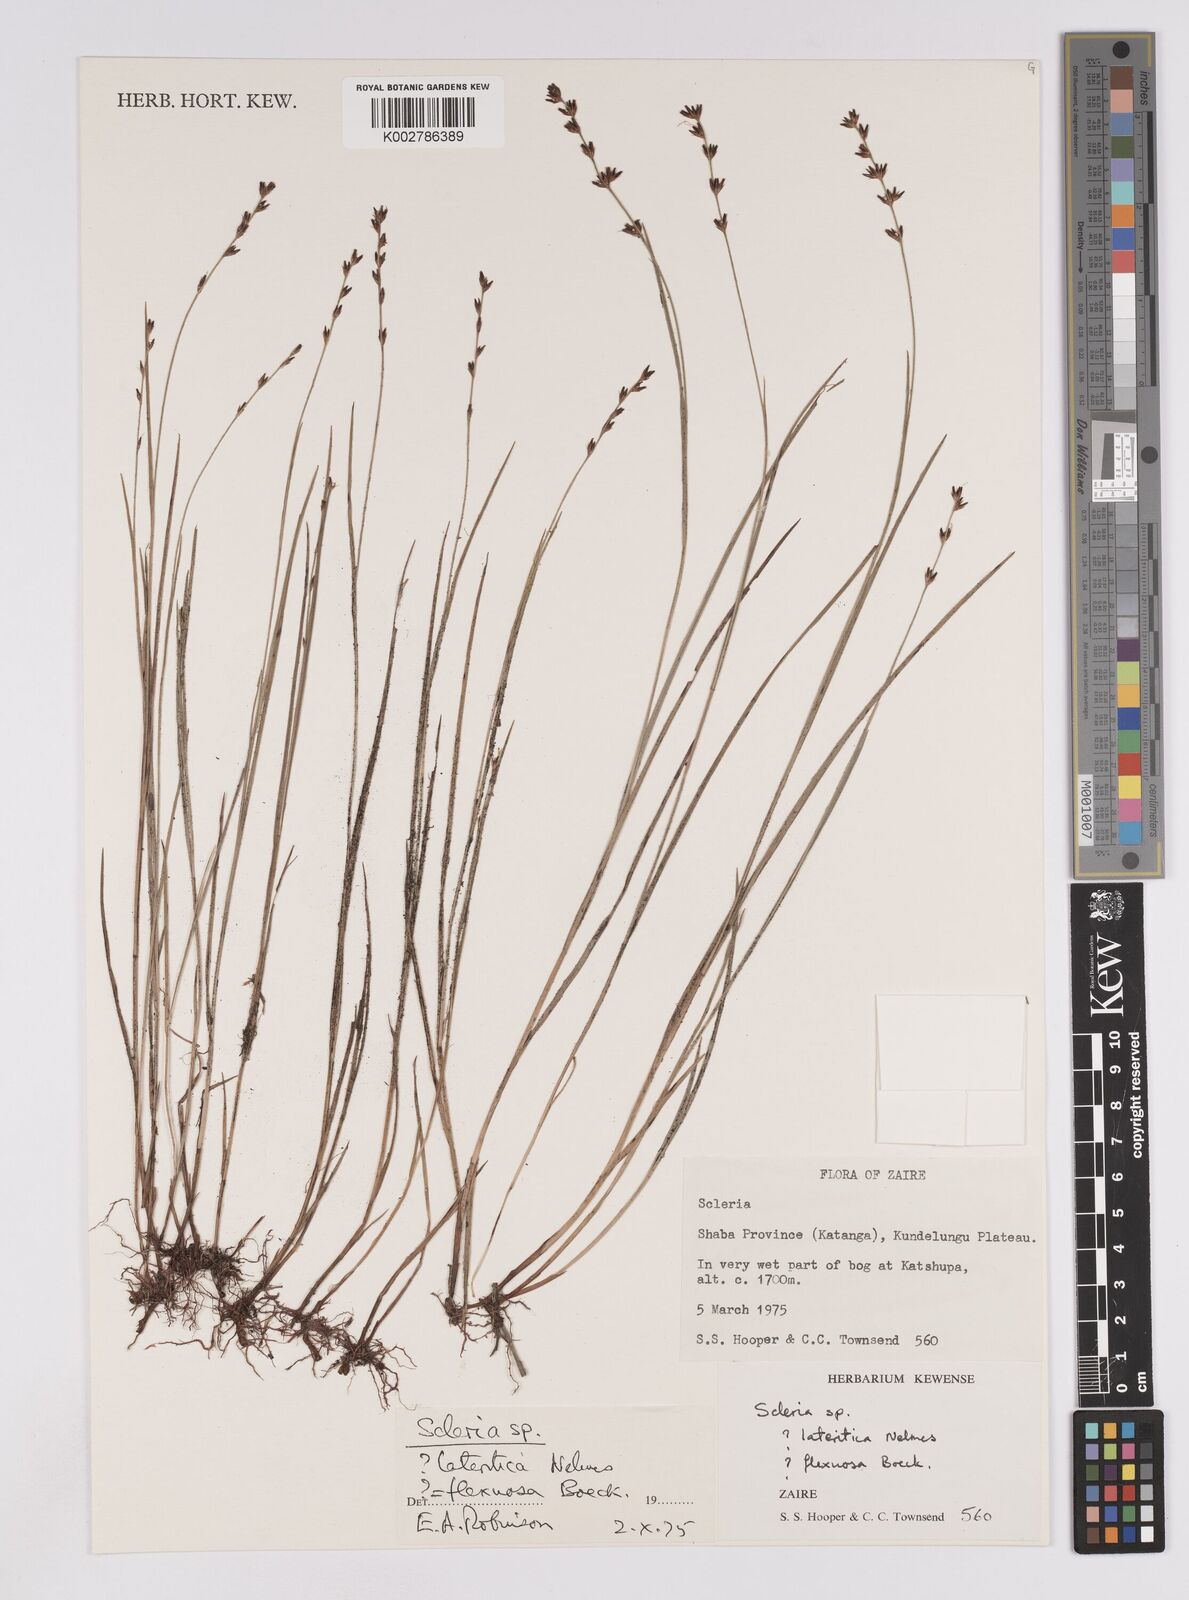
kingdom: Plantae
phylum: Tracheophyta
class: Liliopsida
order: Poales
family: Cyperaceae
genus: Scleria
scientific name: Scleria flexuosa
